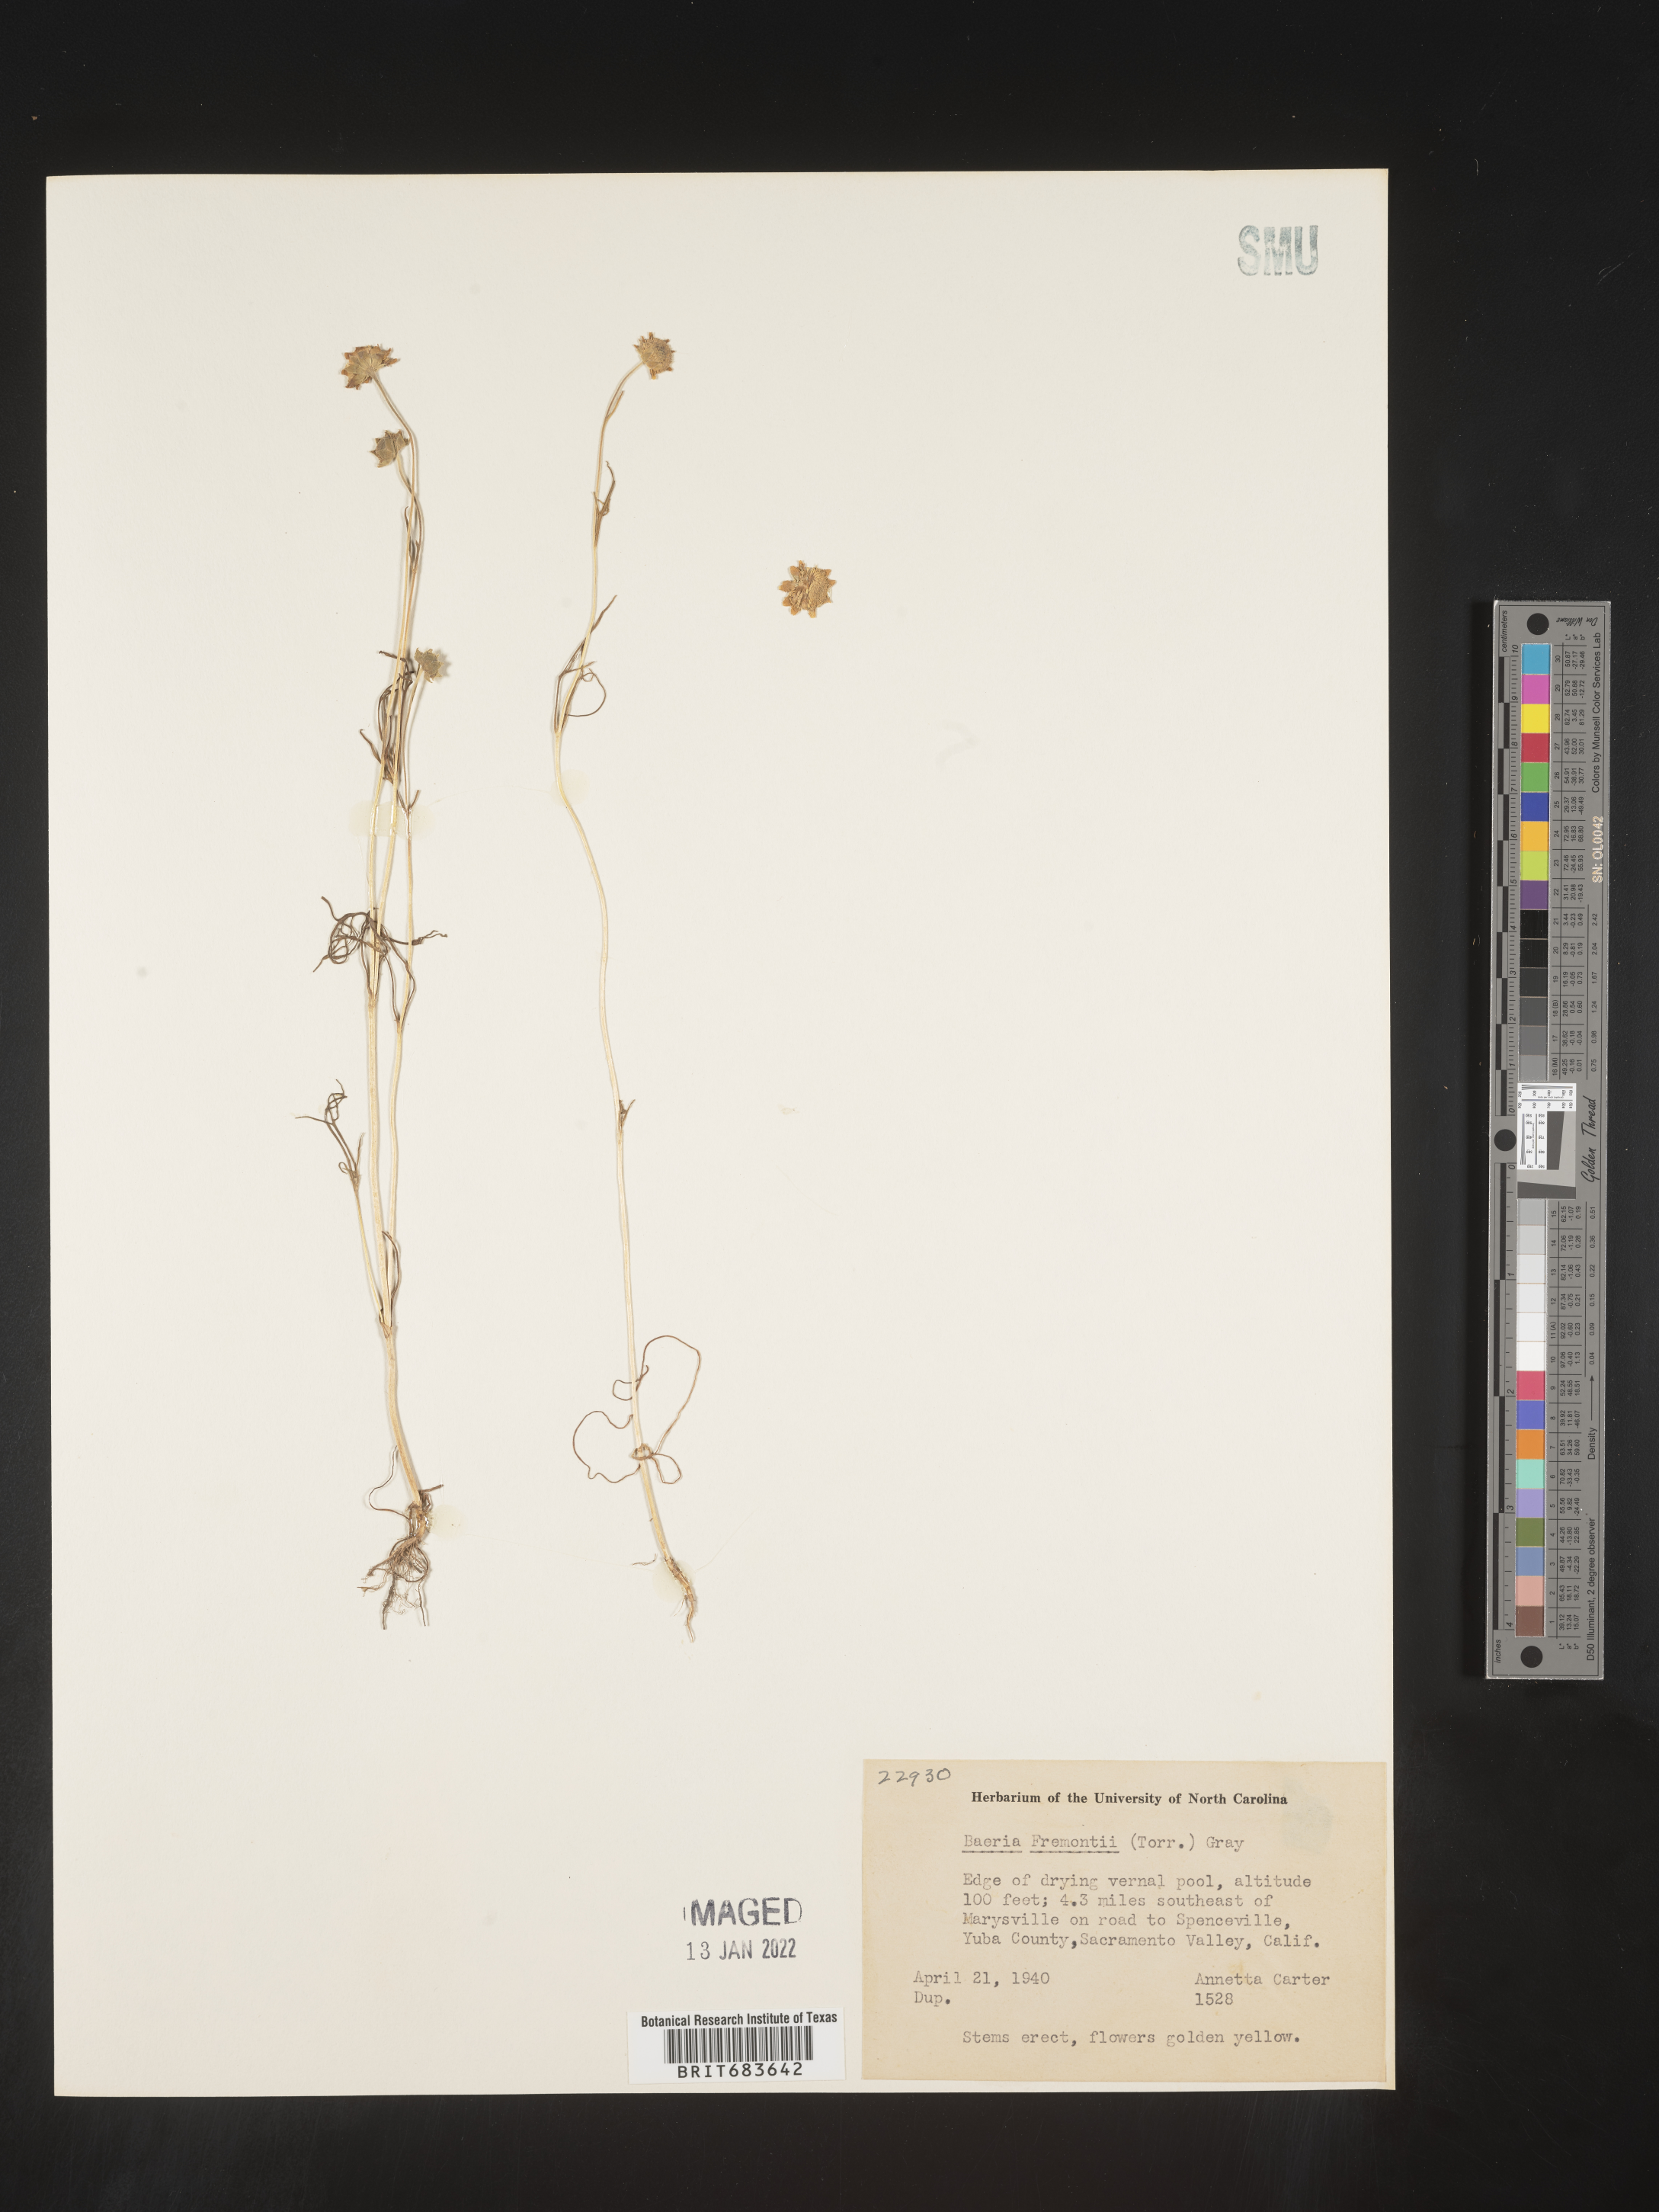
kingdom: Plantae
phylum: Tracheophyta
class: Magnoliopsida
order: Asterales
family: Asteraceae
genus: Lasthenia
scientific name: Lasthenia
